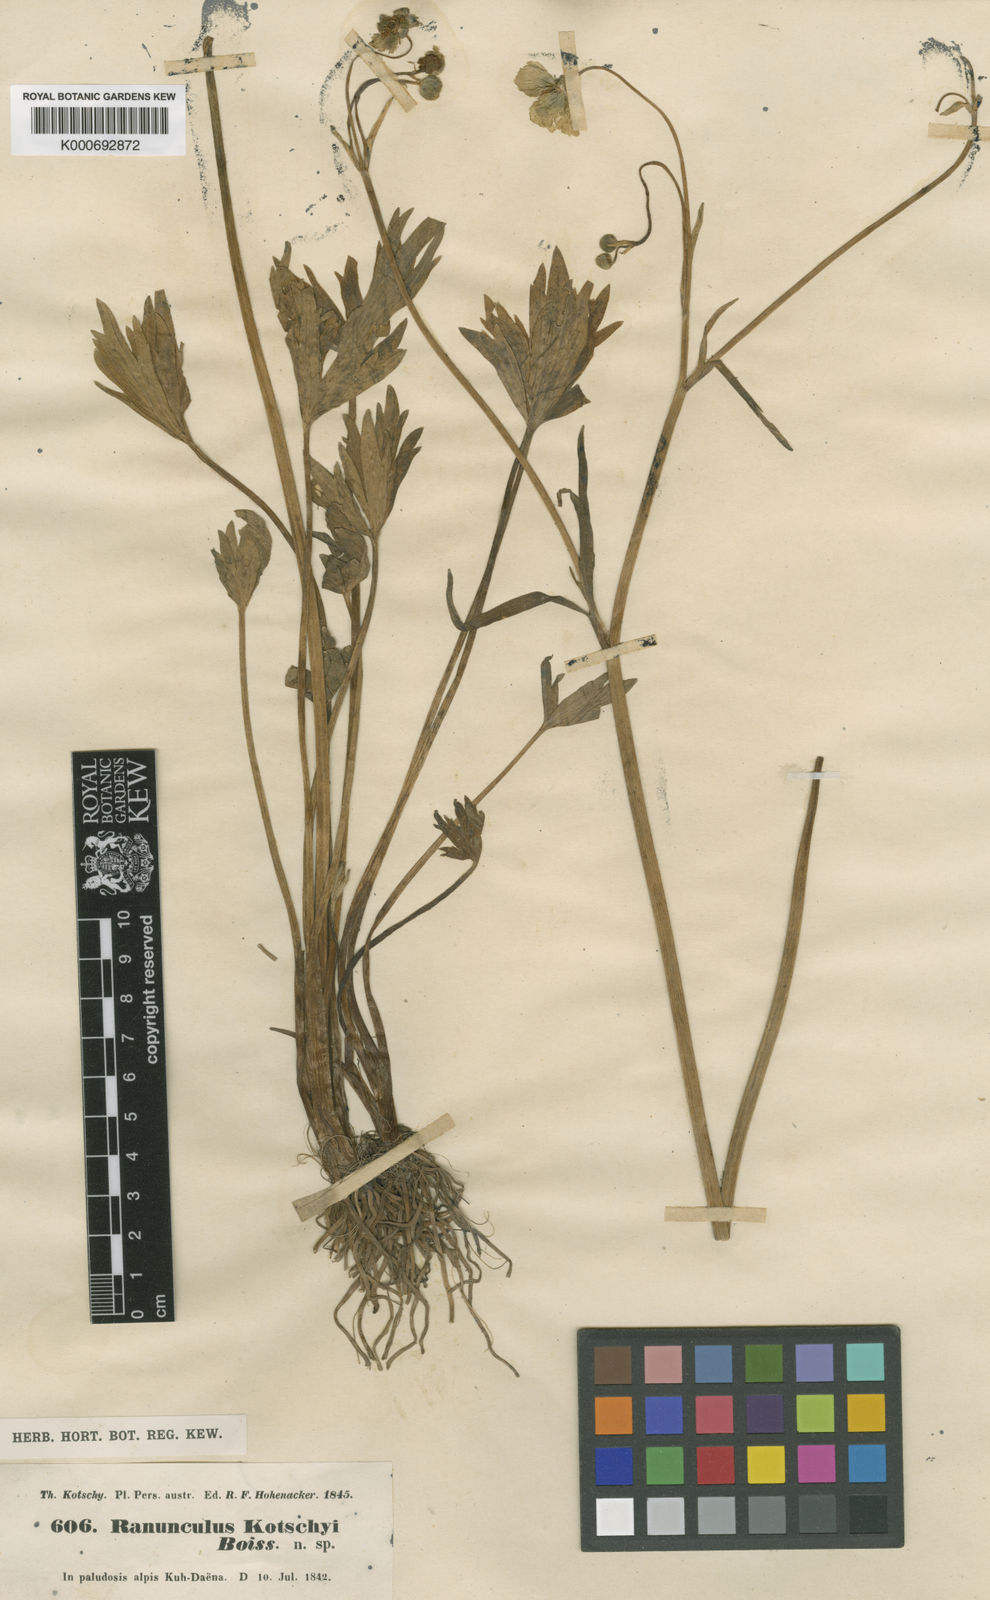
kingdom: Plantae
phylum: Tracheophyta
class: Magnoliopsida
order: Ranunculales
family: Ranunculaceae
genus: Ranunculus
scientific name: Ranunculus kotschyi
